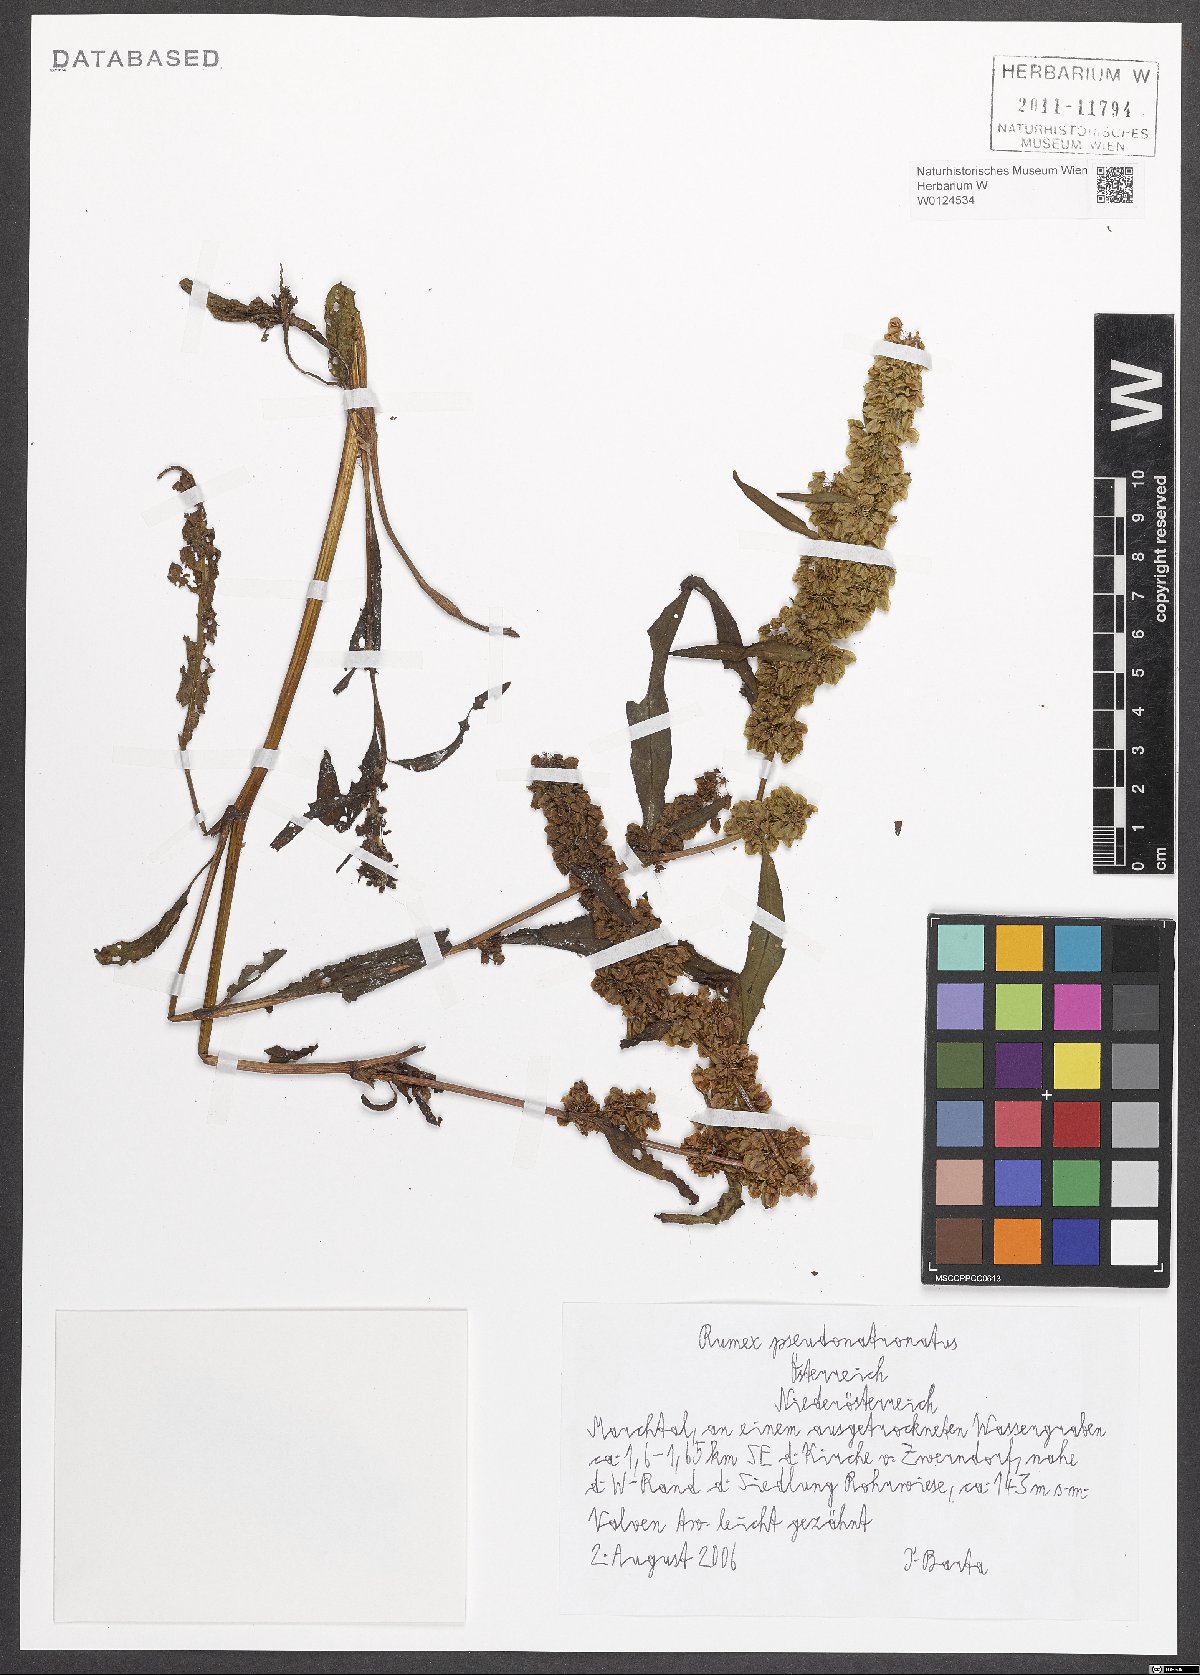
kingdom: Plantae
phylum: Tracheophyta
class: Magnoliopsida
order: Caryophyllales
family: Polygonaceae
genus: Rumex
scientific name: Rumex pseudonatronatus
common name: Field dock
